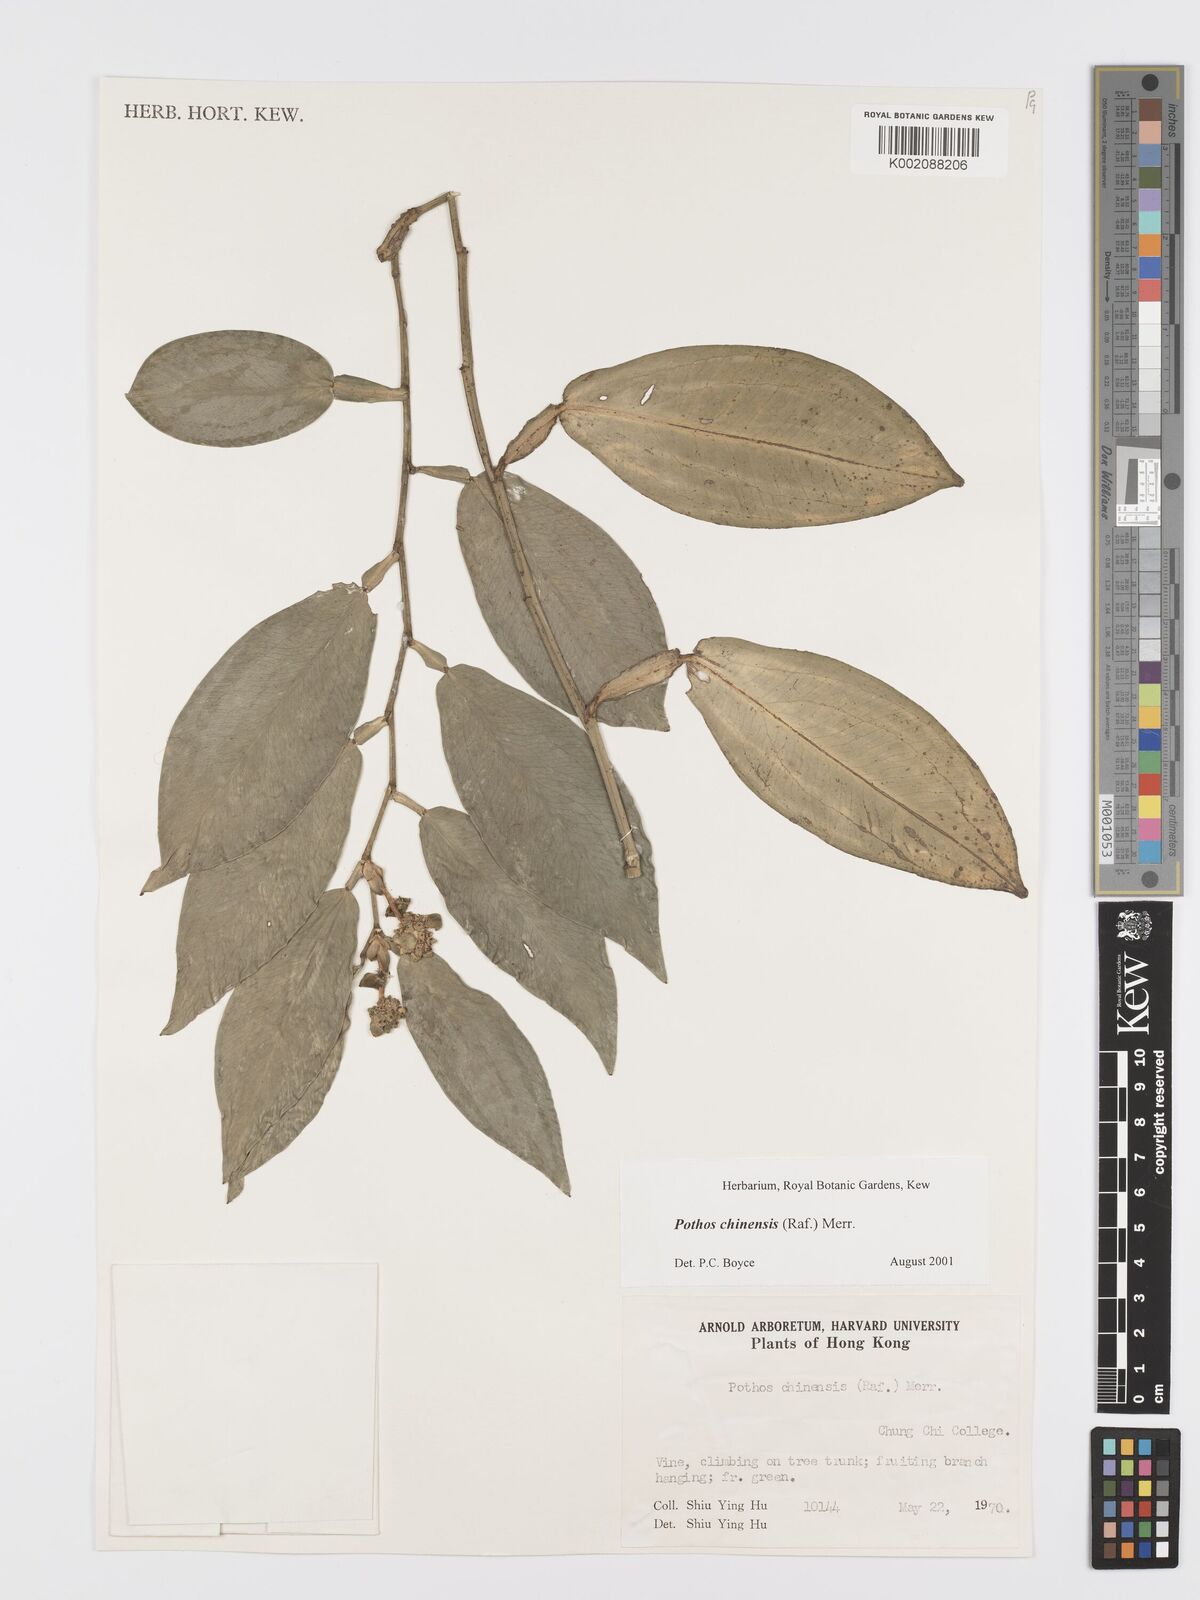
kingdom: Plantae
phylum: Tracheophyta
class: Liliopsida
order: Alismatales
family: Araceae
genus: Pothos
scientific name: Pothos chinensis
